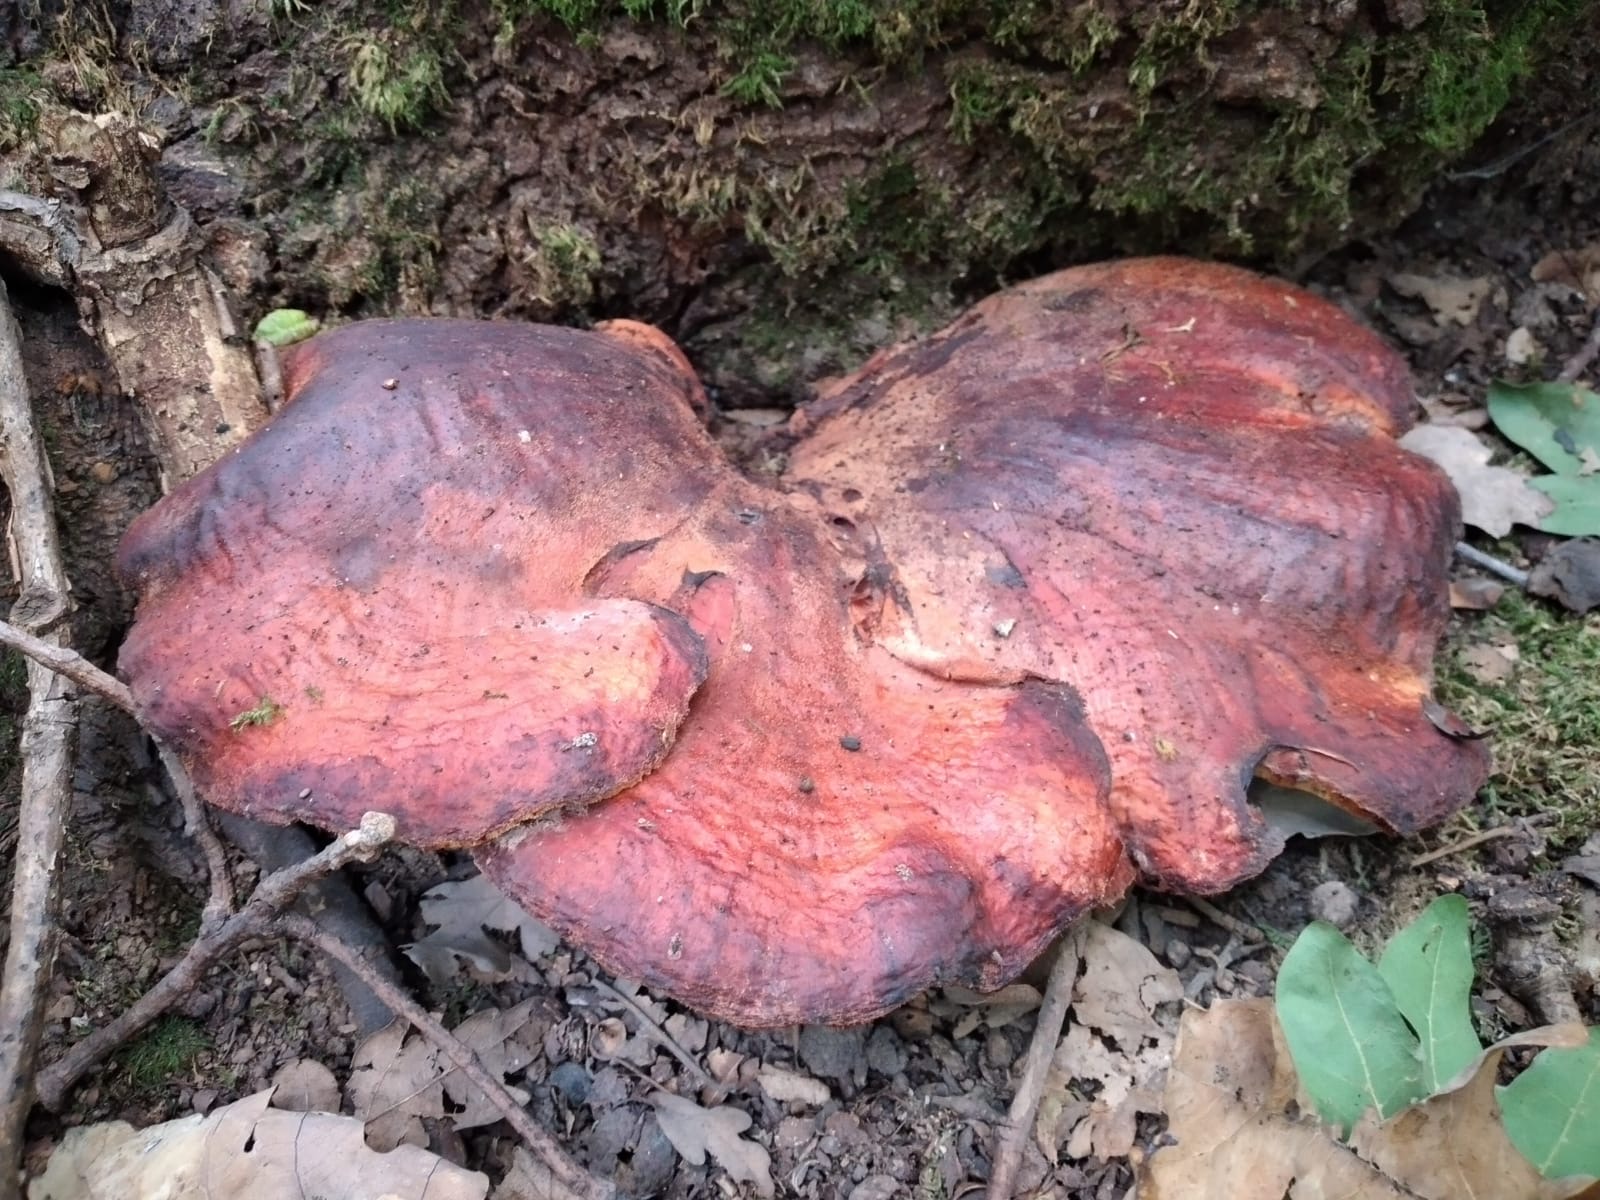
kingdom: Fungi
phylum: Basidiomycota
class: Agaricomycetes
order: Agaricales
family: Fistulinaceae
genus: Fistulina
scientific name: Fistulina hepatica
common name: oksetunge
